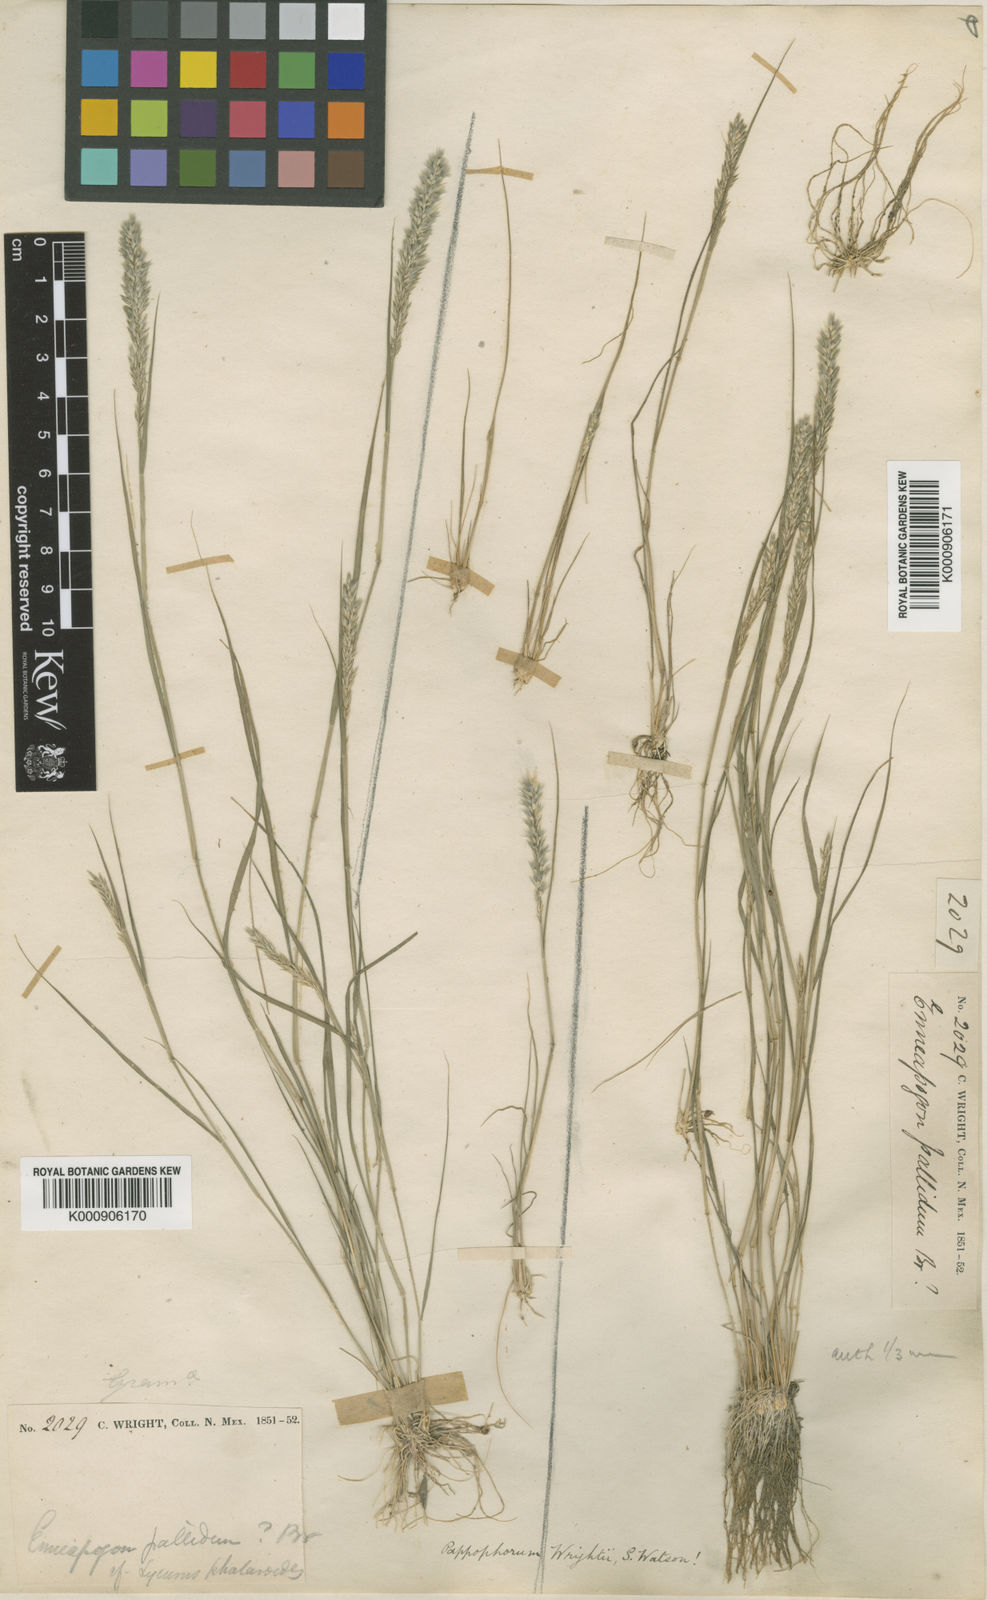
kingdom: Plantae
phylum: Tracheophyta
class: Liliopsida
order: Poales
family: Poaceae
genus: Enneapogon
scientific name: Enneapogon desvauxii
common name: Feather pappus grass
